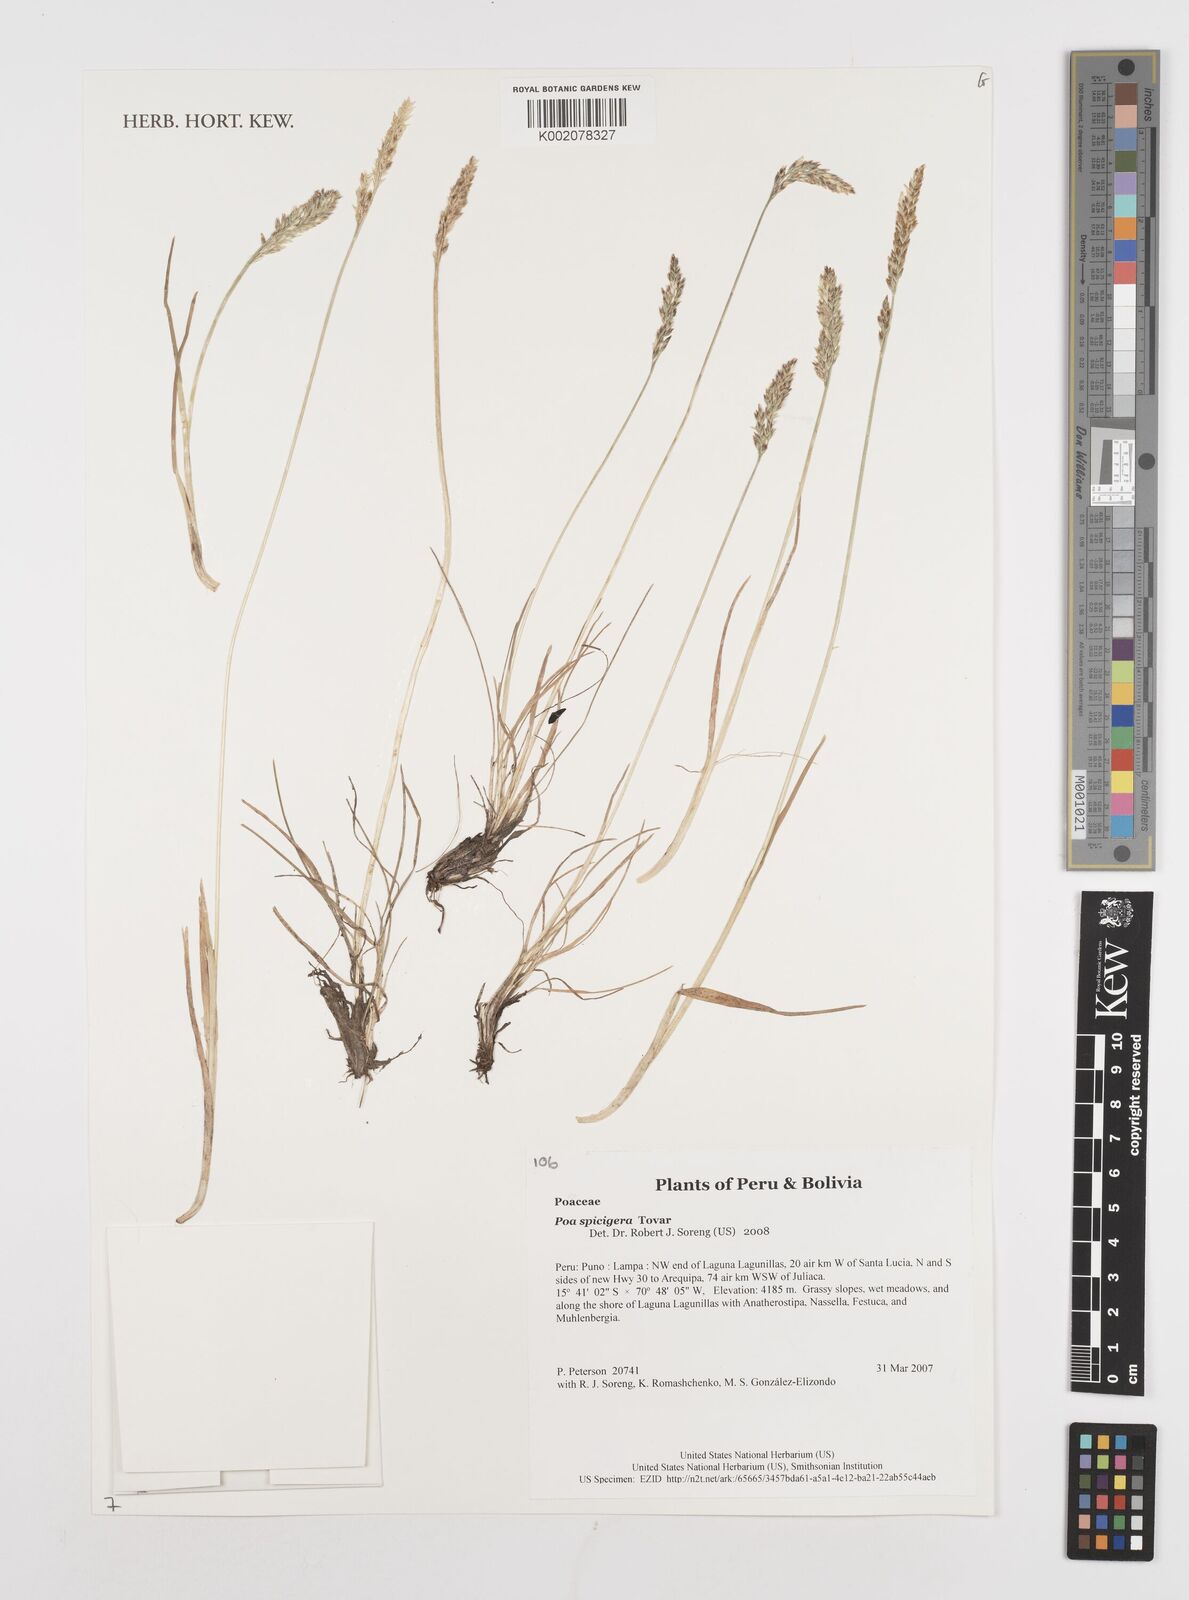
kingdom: Plantae
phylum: Tracheophyta
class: Liliopsida
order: Poales
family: Poaceae
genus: Poa
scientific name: Poa spicigera
